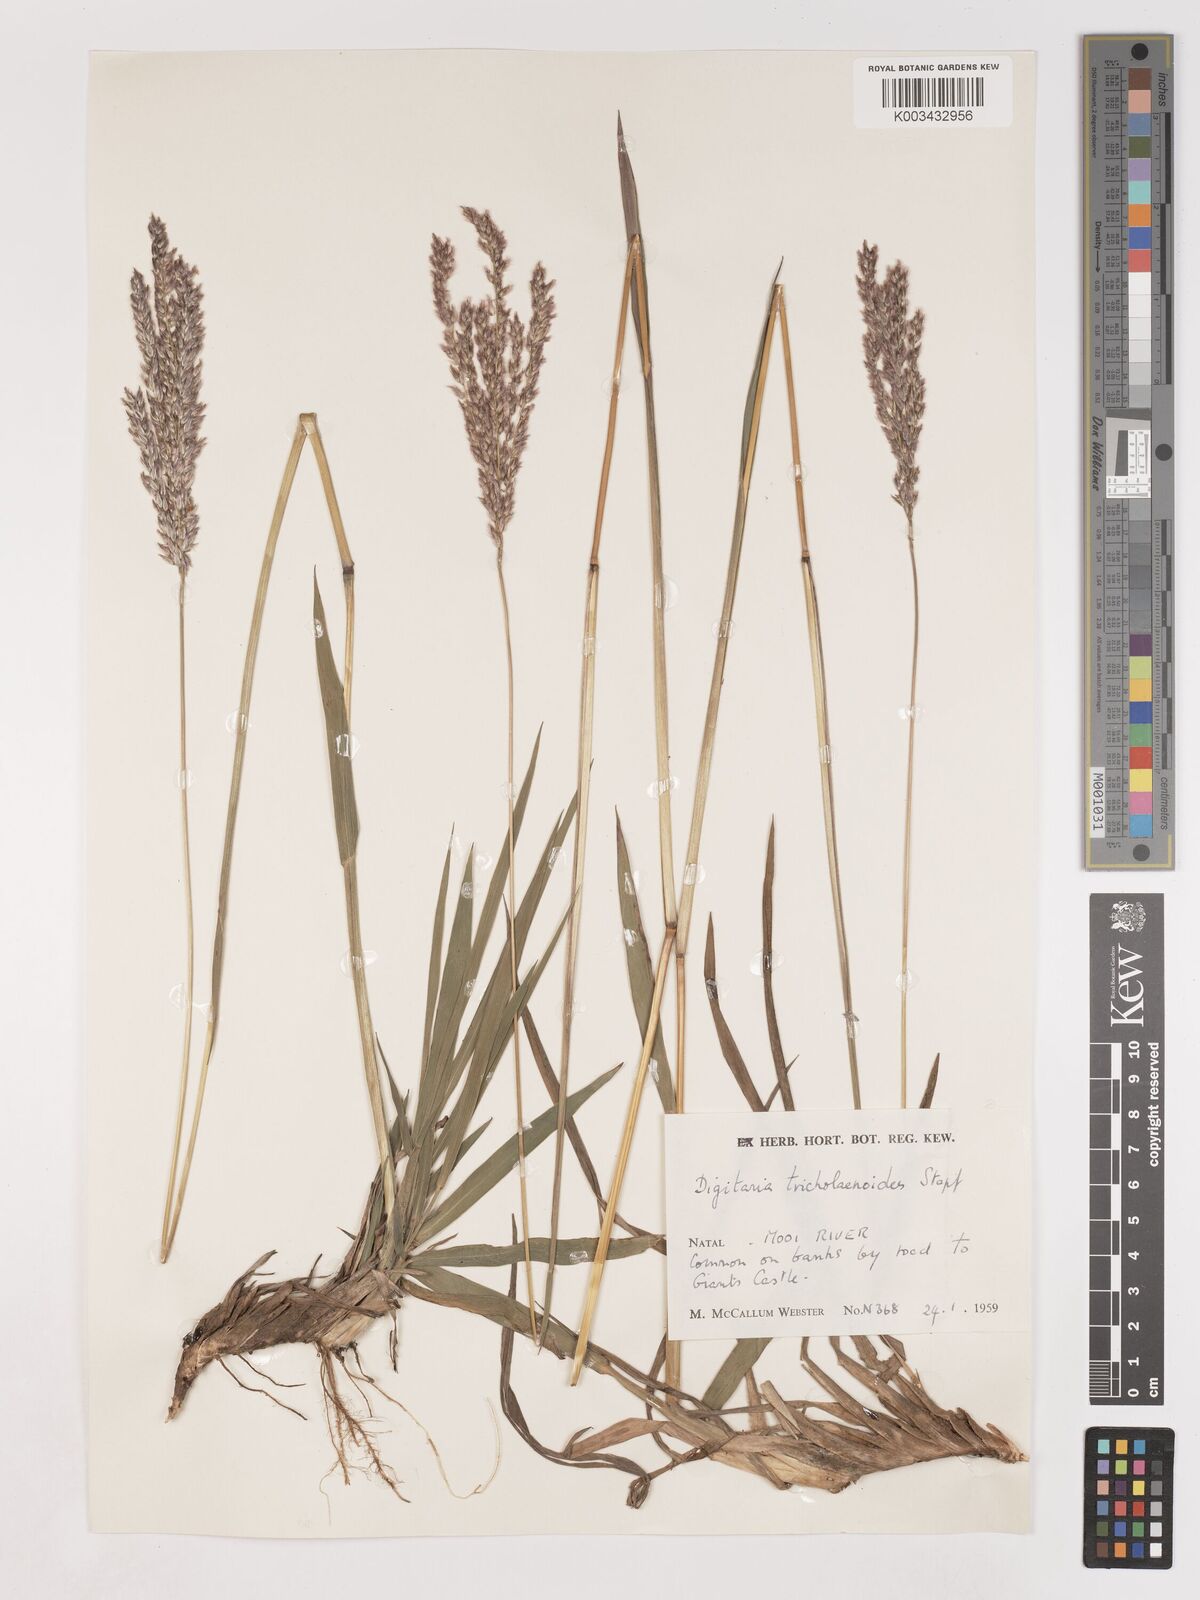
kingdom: Plantae
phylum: Tracheophyta
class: Liliopsida
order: Poales
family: Poaceae
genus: Digitaria
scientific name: Digitaria tricholaenoides
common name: Purple finger grass
